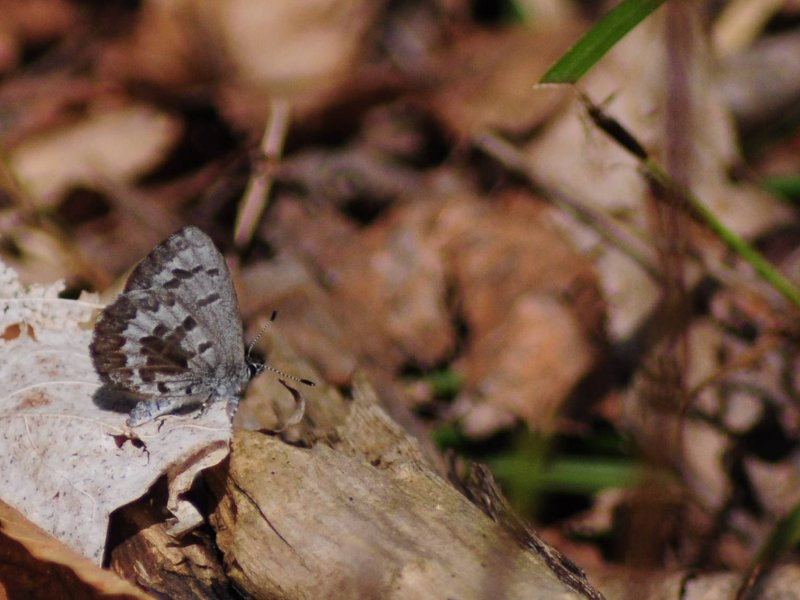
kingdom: Animalia
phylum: Arthropoda
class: Insecta
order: Lepidoptera
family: Lycaenidae
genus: Celastrina
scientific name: Celastrina lucia
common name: Northern Spring Azure
